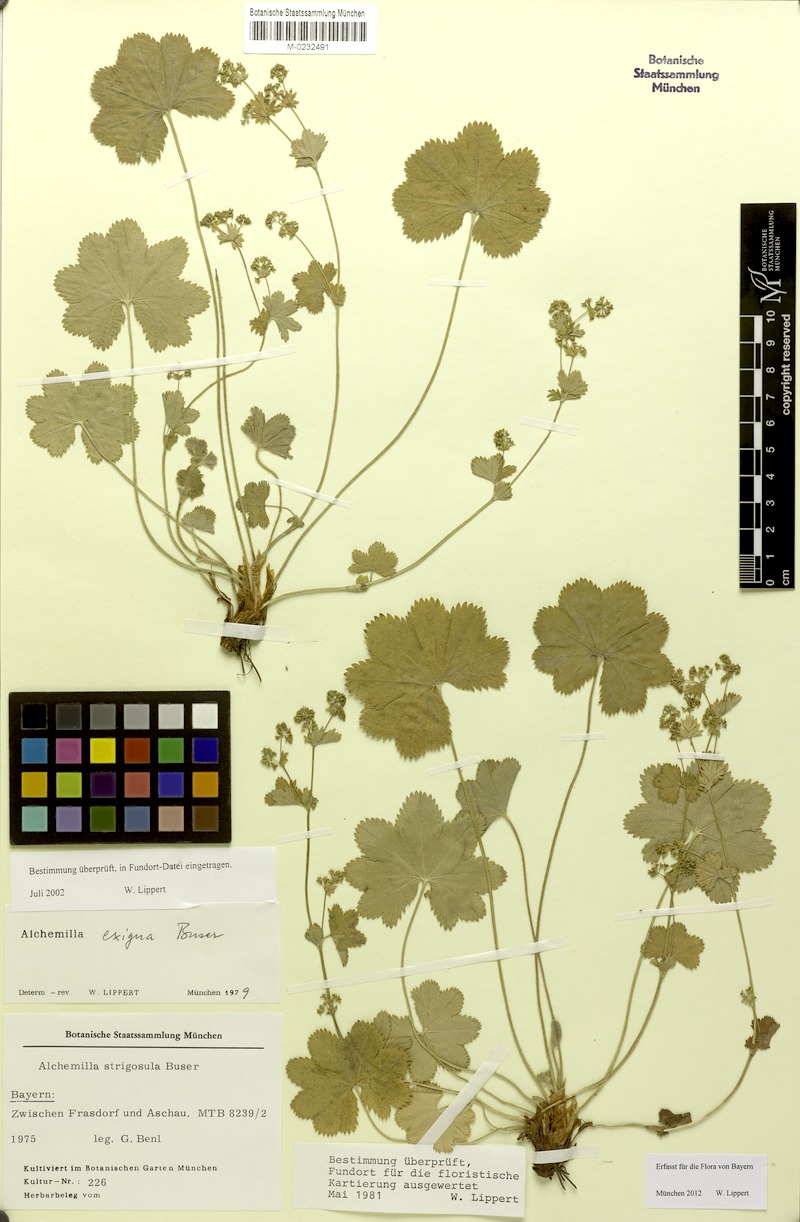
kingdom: Plantae
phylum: Tracheophyta
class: Magnoliopsida
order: Rosales
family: Rosaceae
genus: Alchemilla
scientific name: Alchemilla exigua
